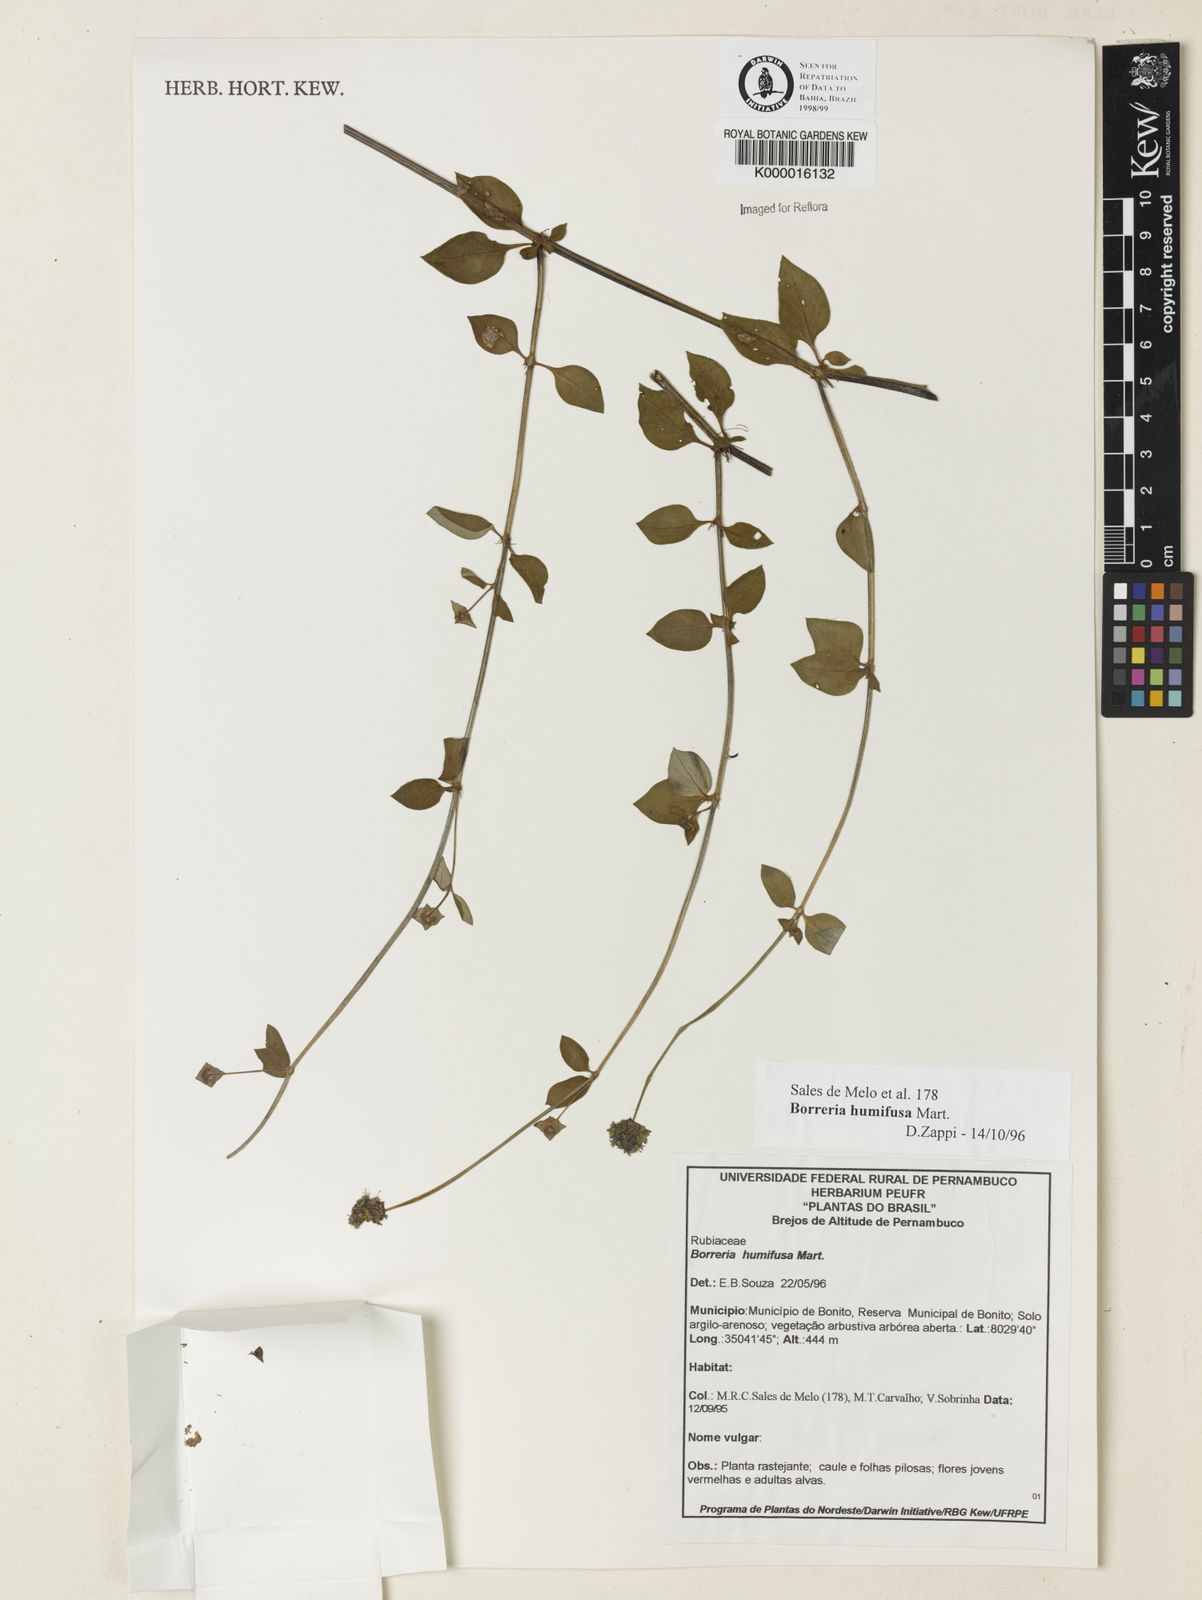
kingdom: Plantae
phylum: Tracheophyta
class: Magnoliopsida
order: Gentianales
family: Rubiaceae
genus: Spermacoce
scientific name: Spermacoce scabiosoides
